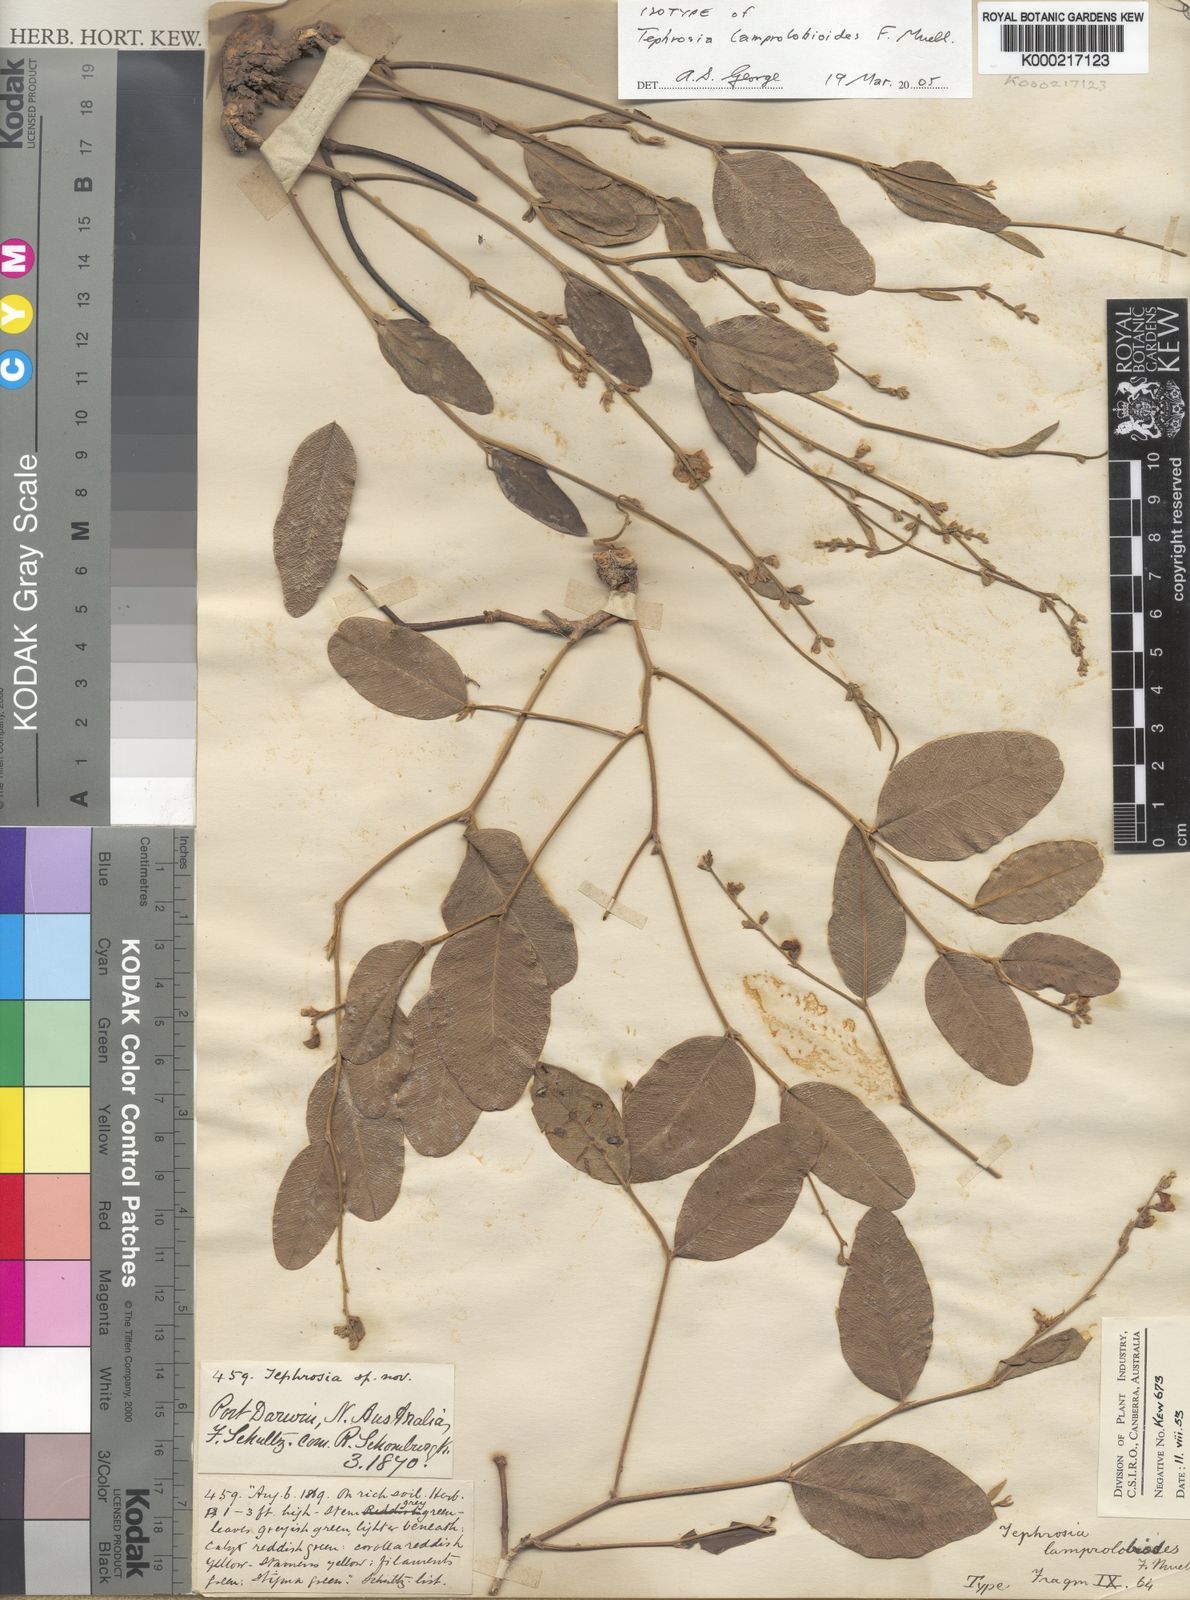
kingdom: Plantae
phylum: Tracheophyta
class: Magnoliopsida
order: Fabales
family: Fabaceae
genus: Tephrosia
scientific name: Tephrosia lamprolobioides
